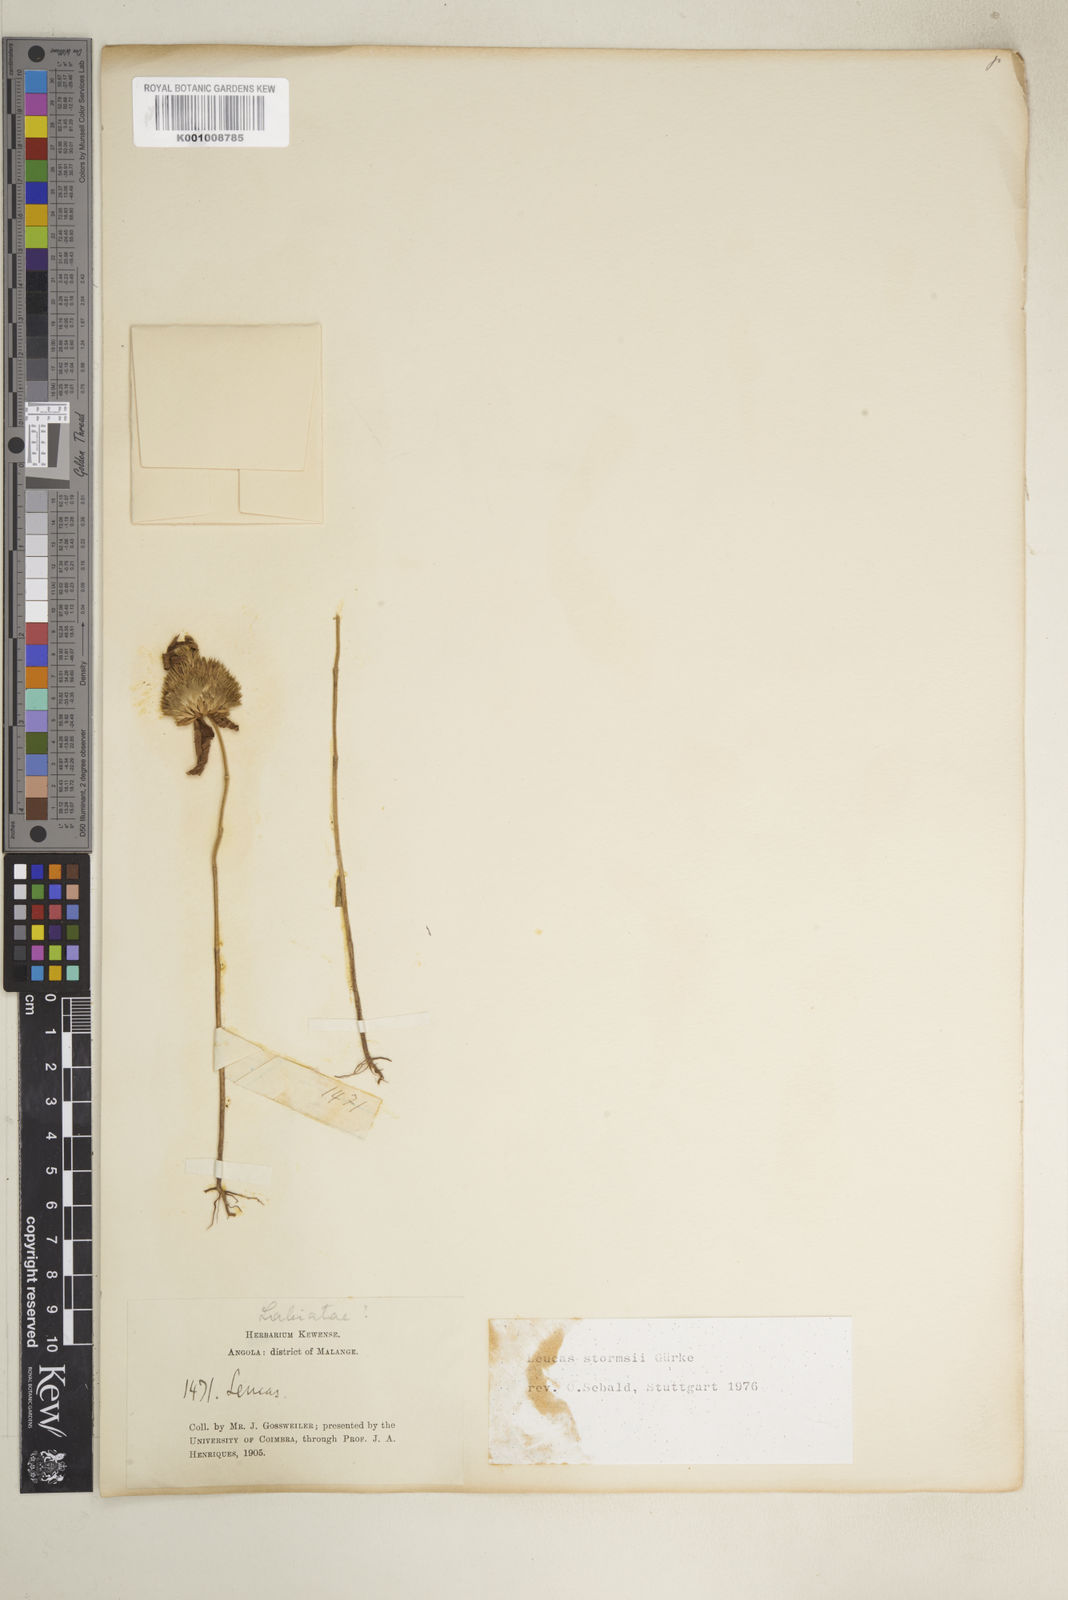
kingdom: Plantae
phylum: Tracheophyta
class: Magnoliopsida
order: Lamiales
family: Lamiaceae
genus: Leucas
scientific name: Leucas
